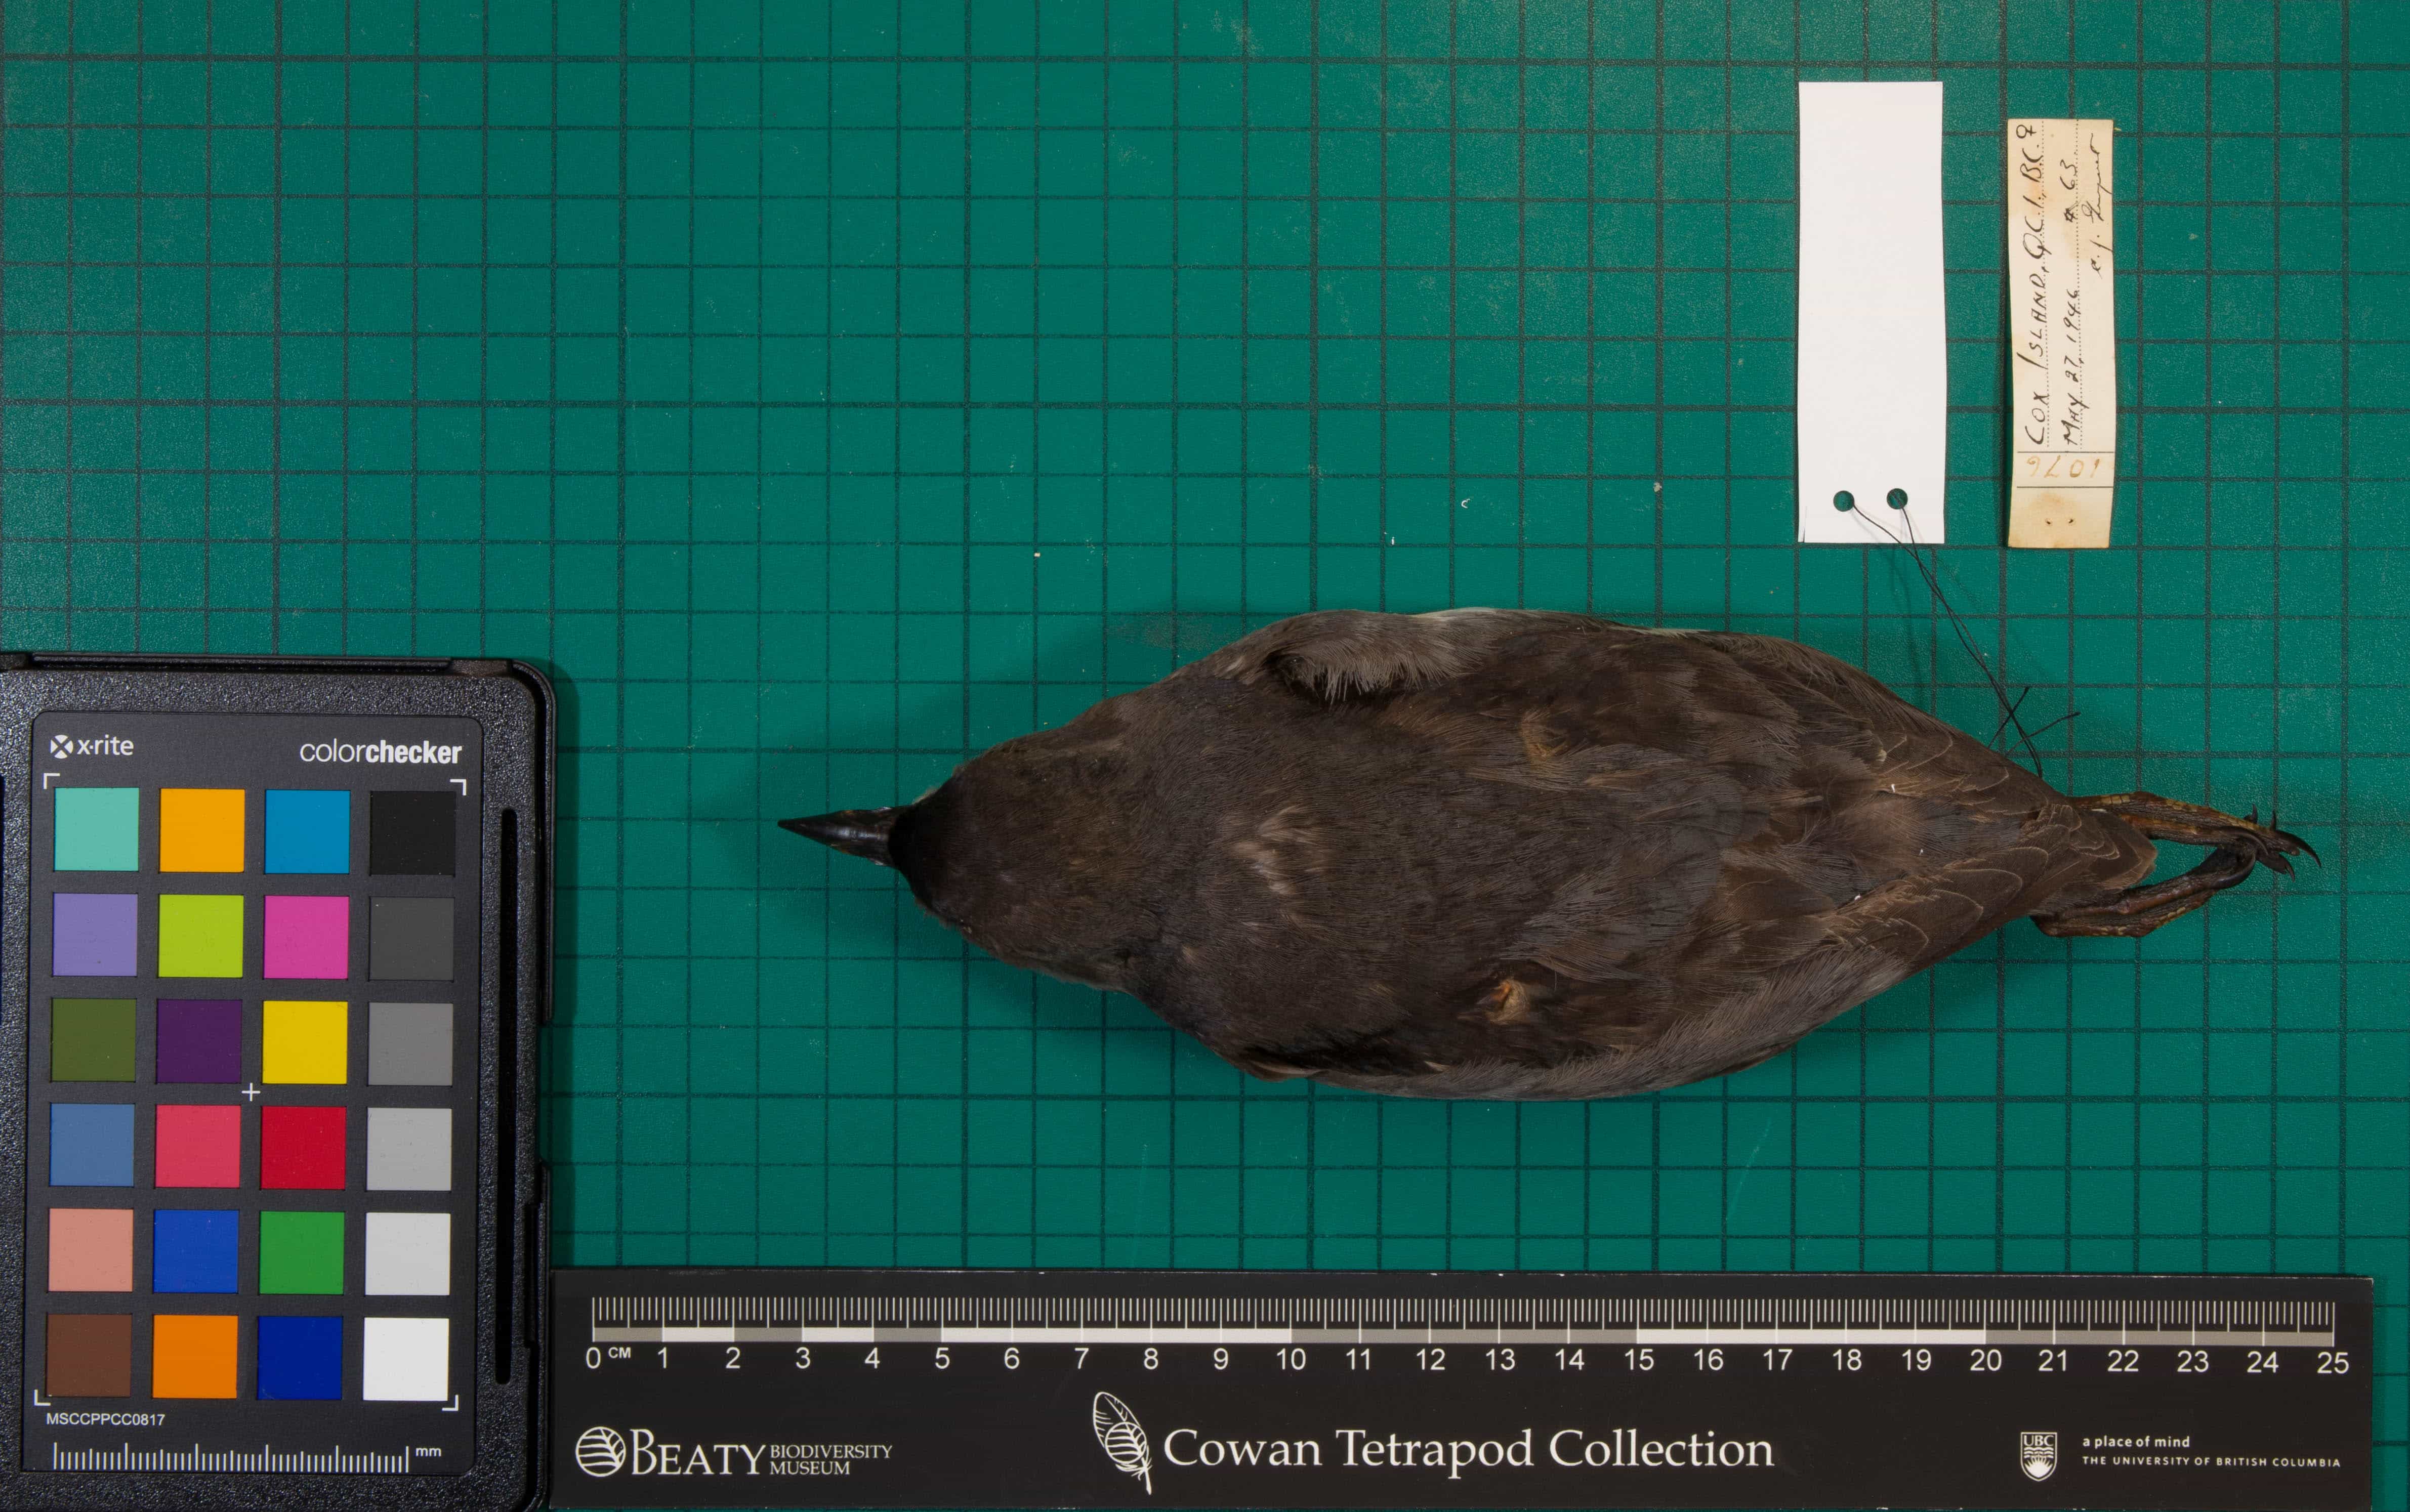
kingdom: Animalia
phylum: Chordata
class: Aves
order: Charadriiformes
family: Alcidae
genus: Ptychoramphus
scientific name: Ptychoramphus aleuticus
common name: Cassin's Auklet
